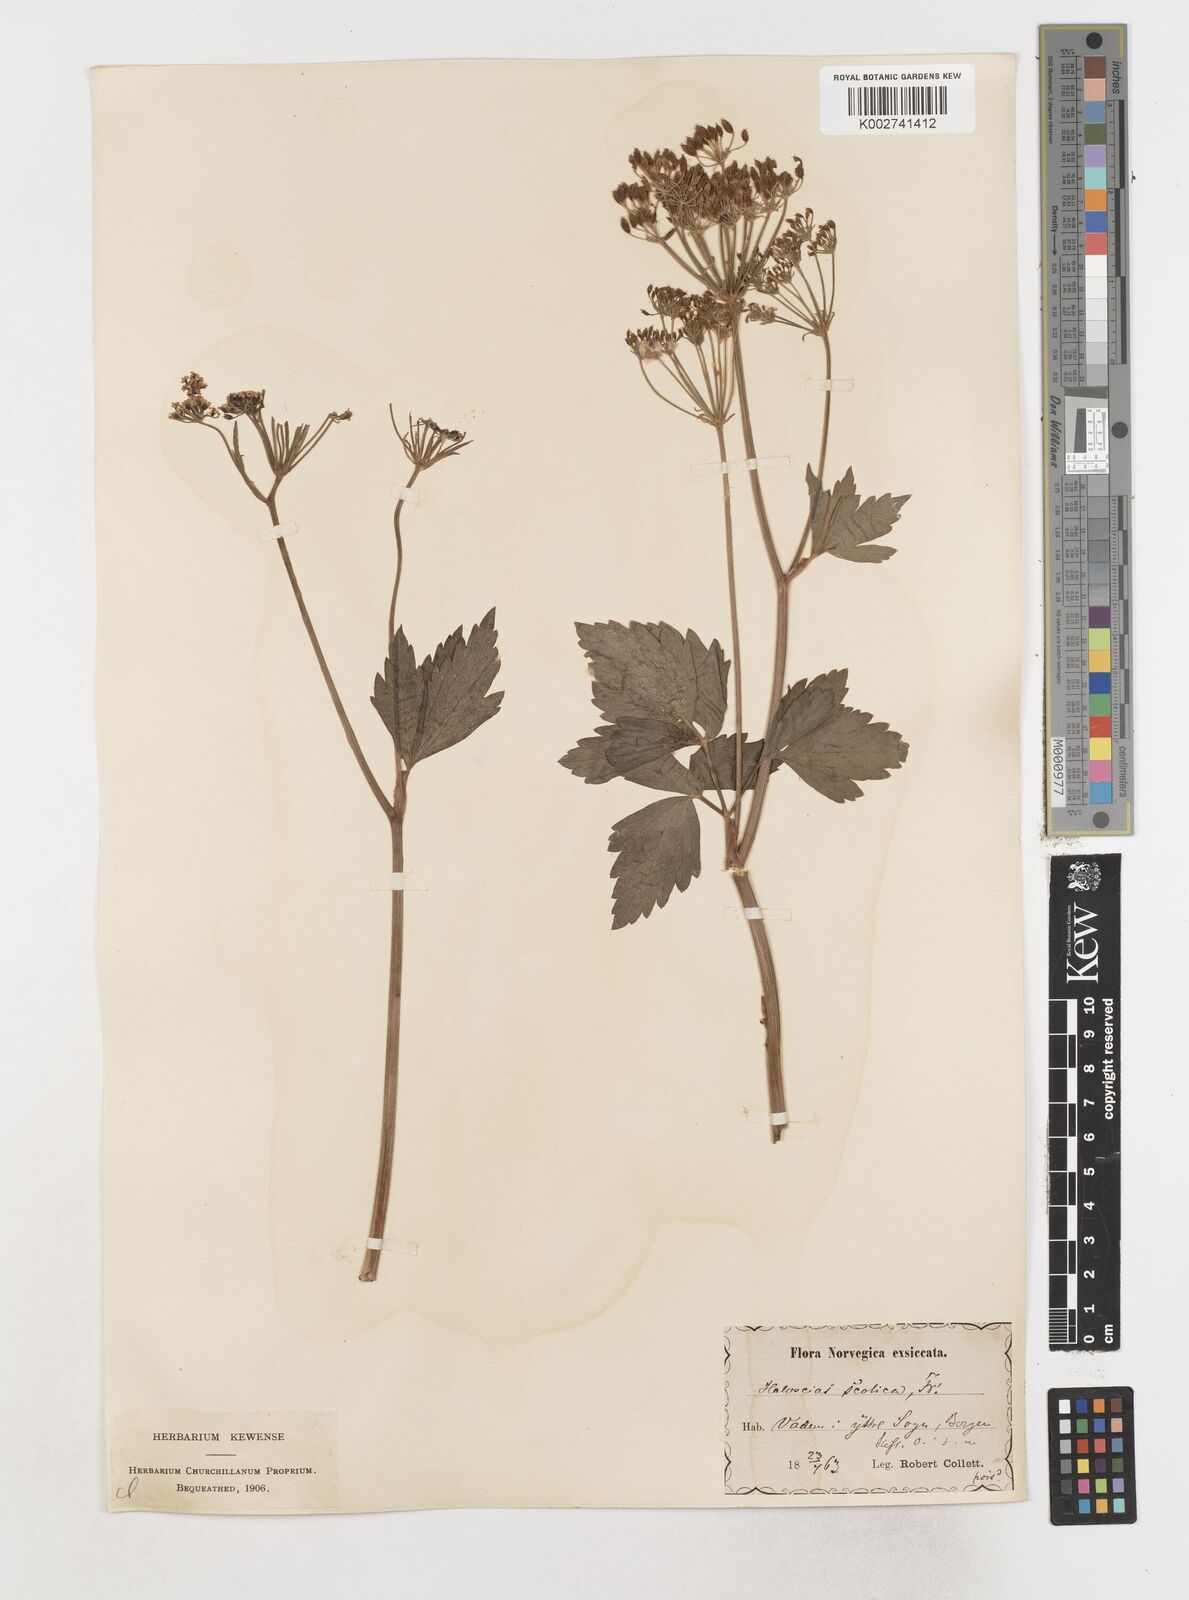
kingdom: Plantae
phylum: Tracheophyta
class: Magnoliopsida
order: Apiales
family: Apiaceae
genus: Ligusticum
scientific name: Ligusticum scothicum
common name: Beach lovage
